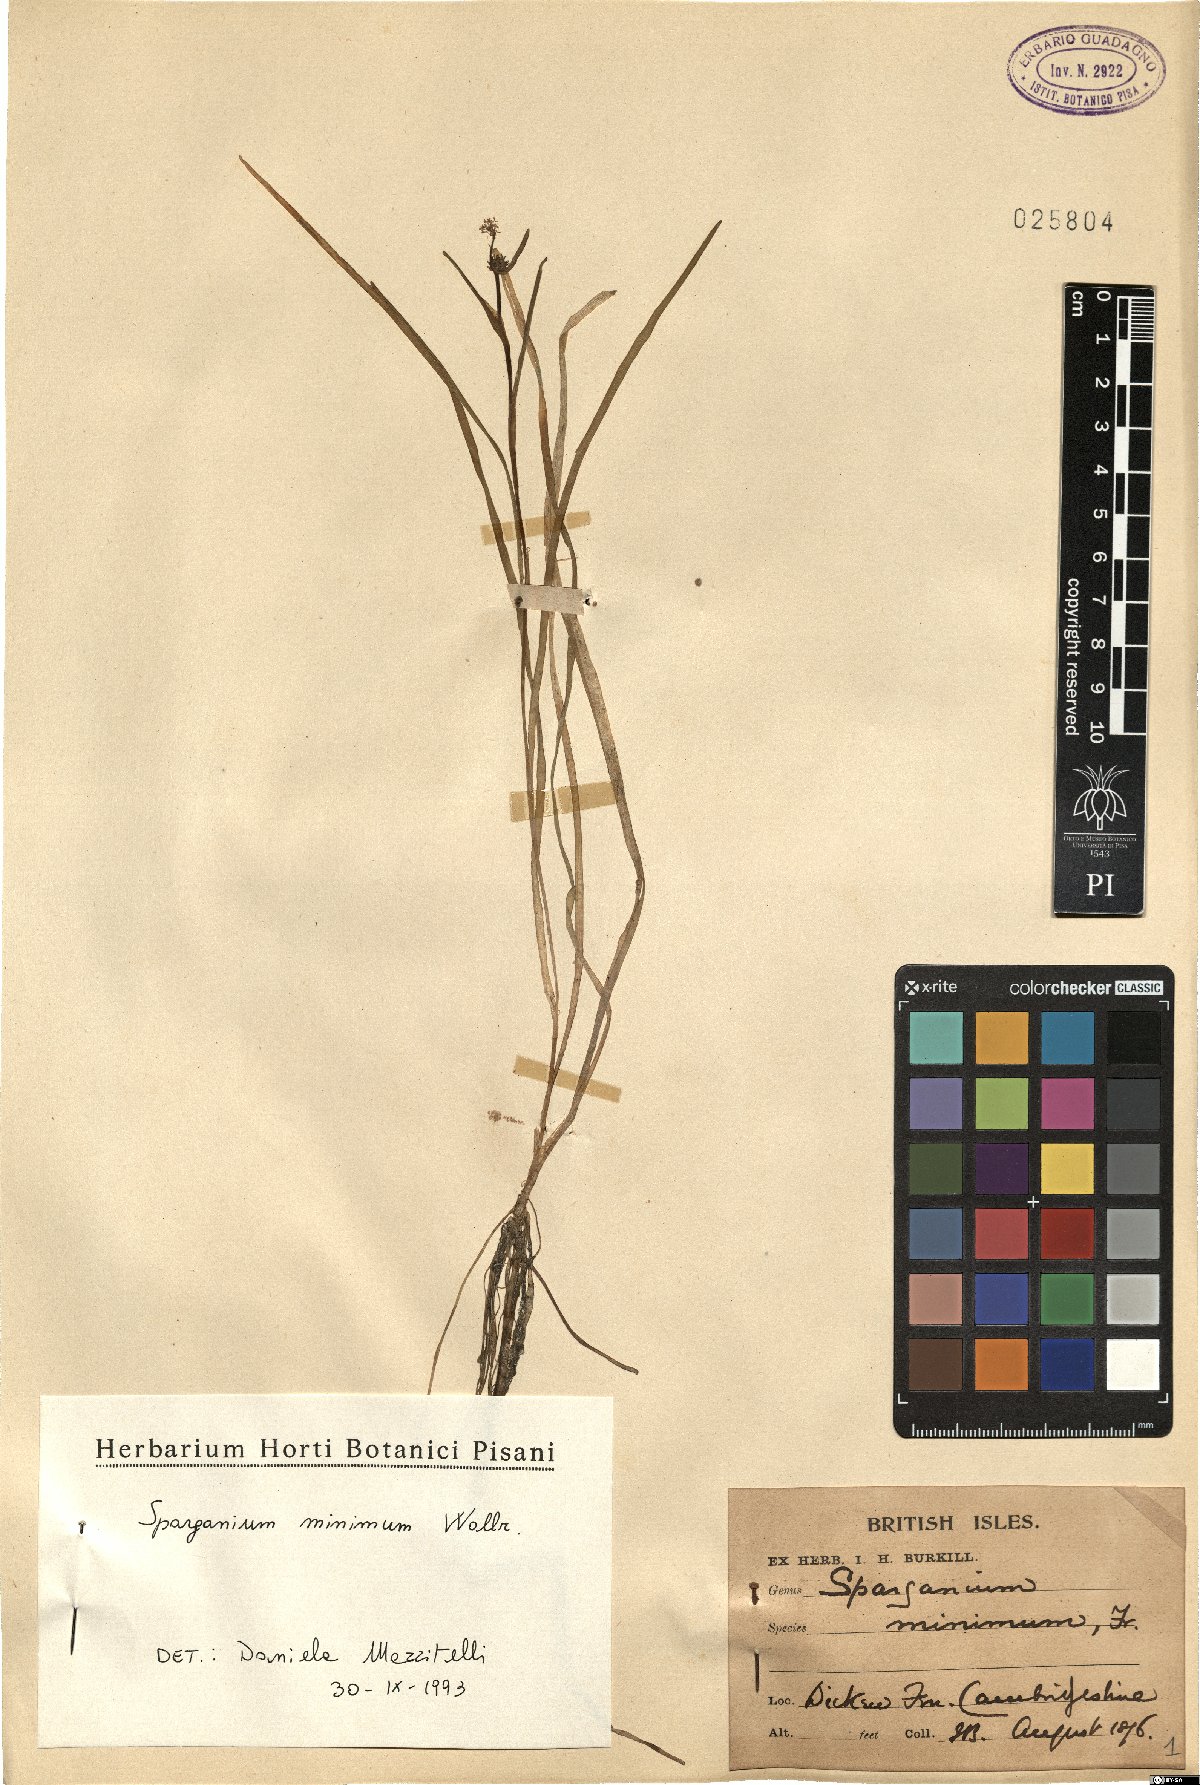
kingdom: Plantae
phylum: Tracheophyta
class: Liliopsida
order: Poales
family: Typhaceae
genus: Sparganium
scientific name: Sparganium natans
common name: Least bur-reed
